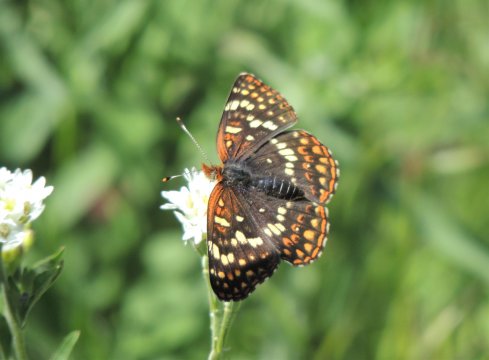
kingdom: Animalia
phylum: Arthropoda
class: Insecta
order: Lepidoptera
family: Nymphalidae
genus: Chlosyne
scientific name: Chlosyne palla
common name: Northern Checkerspot
